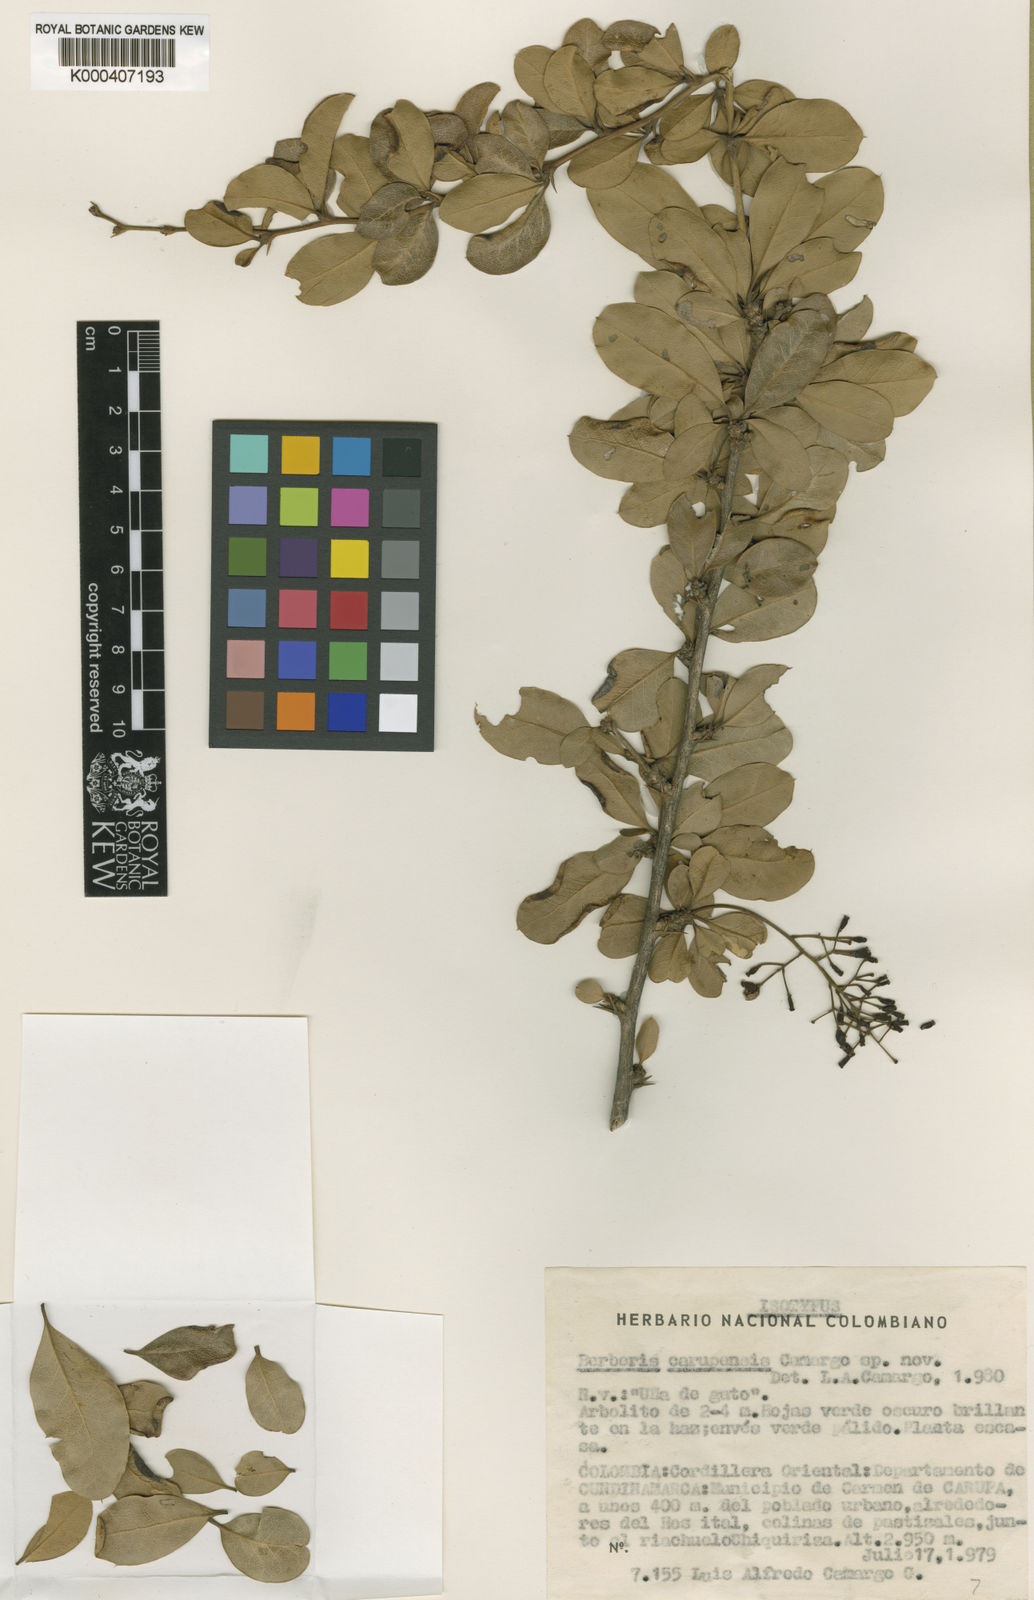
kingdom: Plantae
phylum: Tracheophyta
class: Magnoliopsida
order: Ranunculales
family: Berberidaceae
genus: Berberis
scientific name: Berberis carupensis
